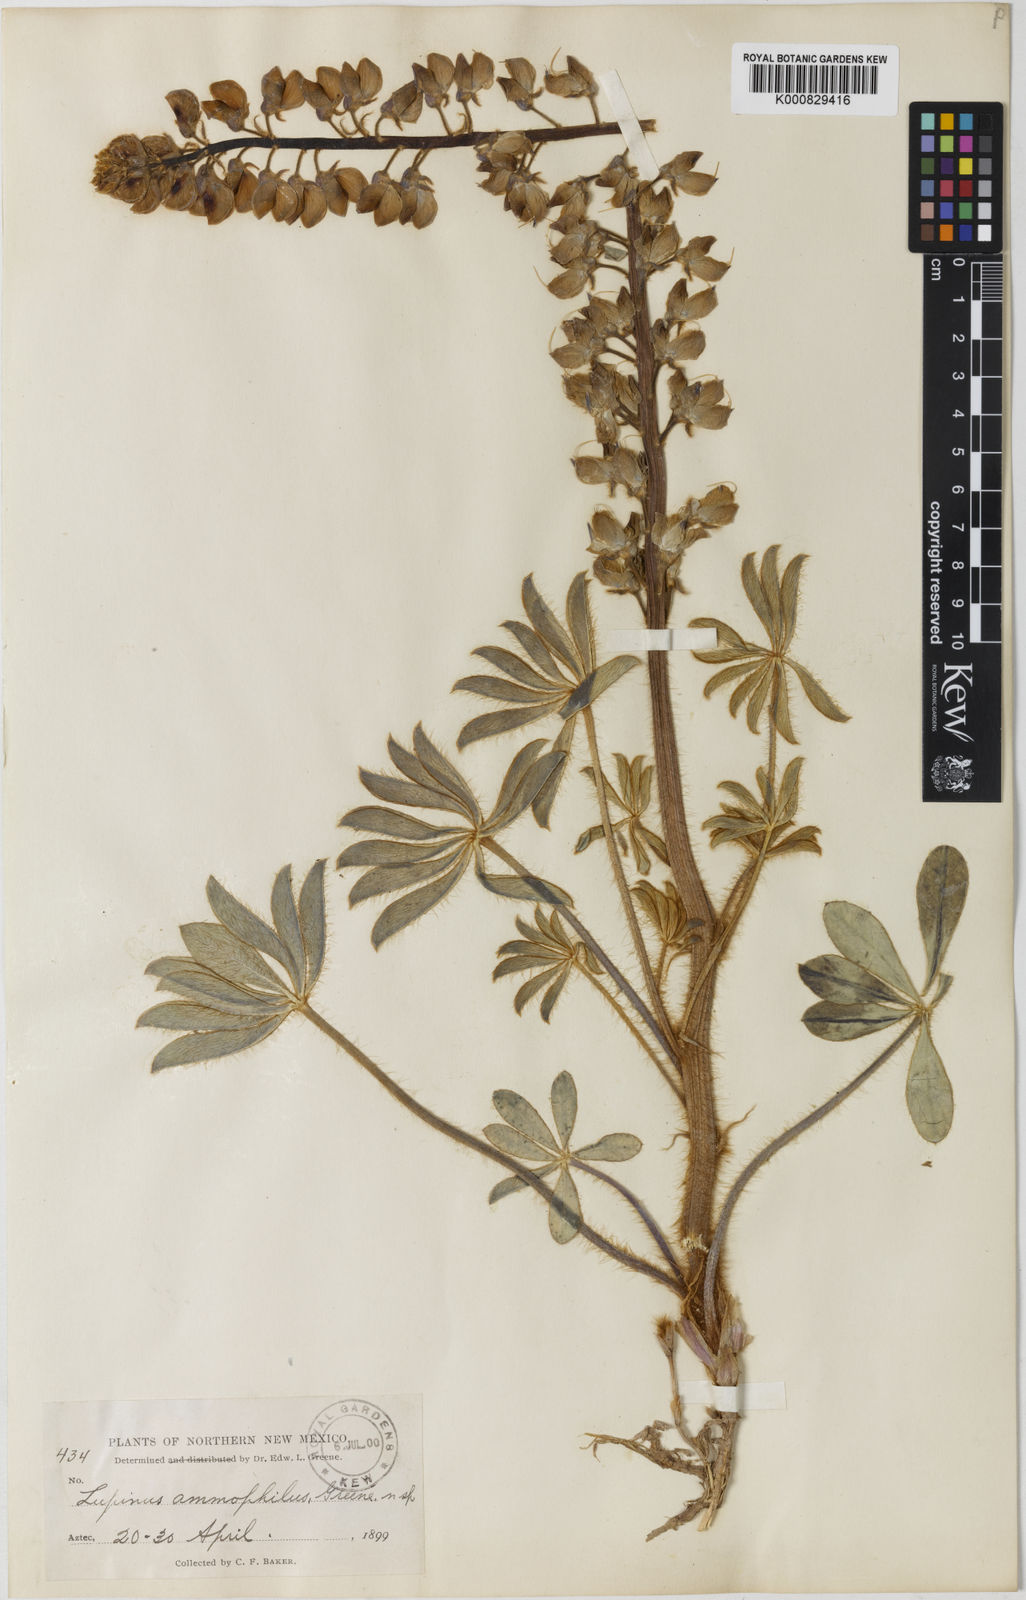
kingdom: Plantae
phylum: Tracheophyta
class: Magnoliopsida
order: Fabales
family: Fabaceae
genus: Lupinus
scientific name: Lupinus ammophilus
